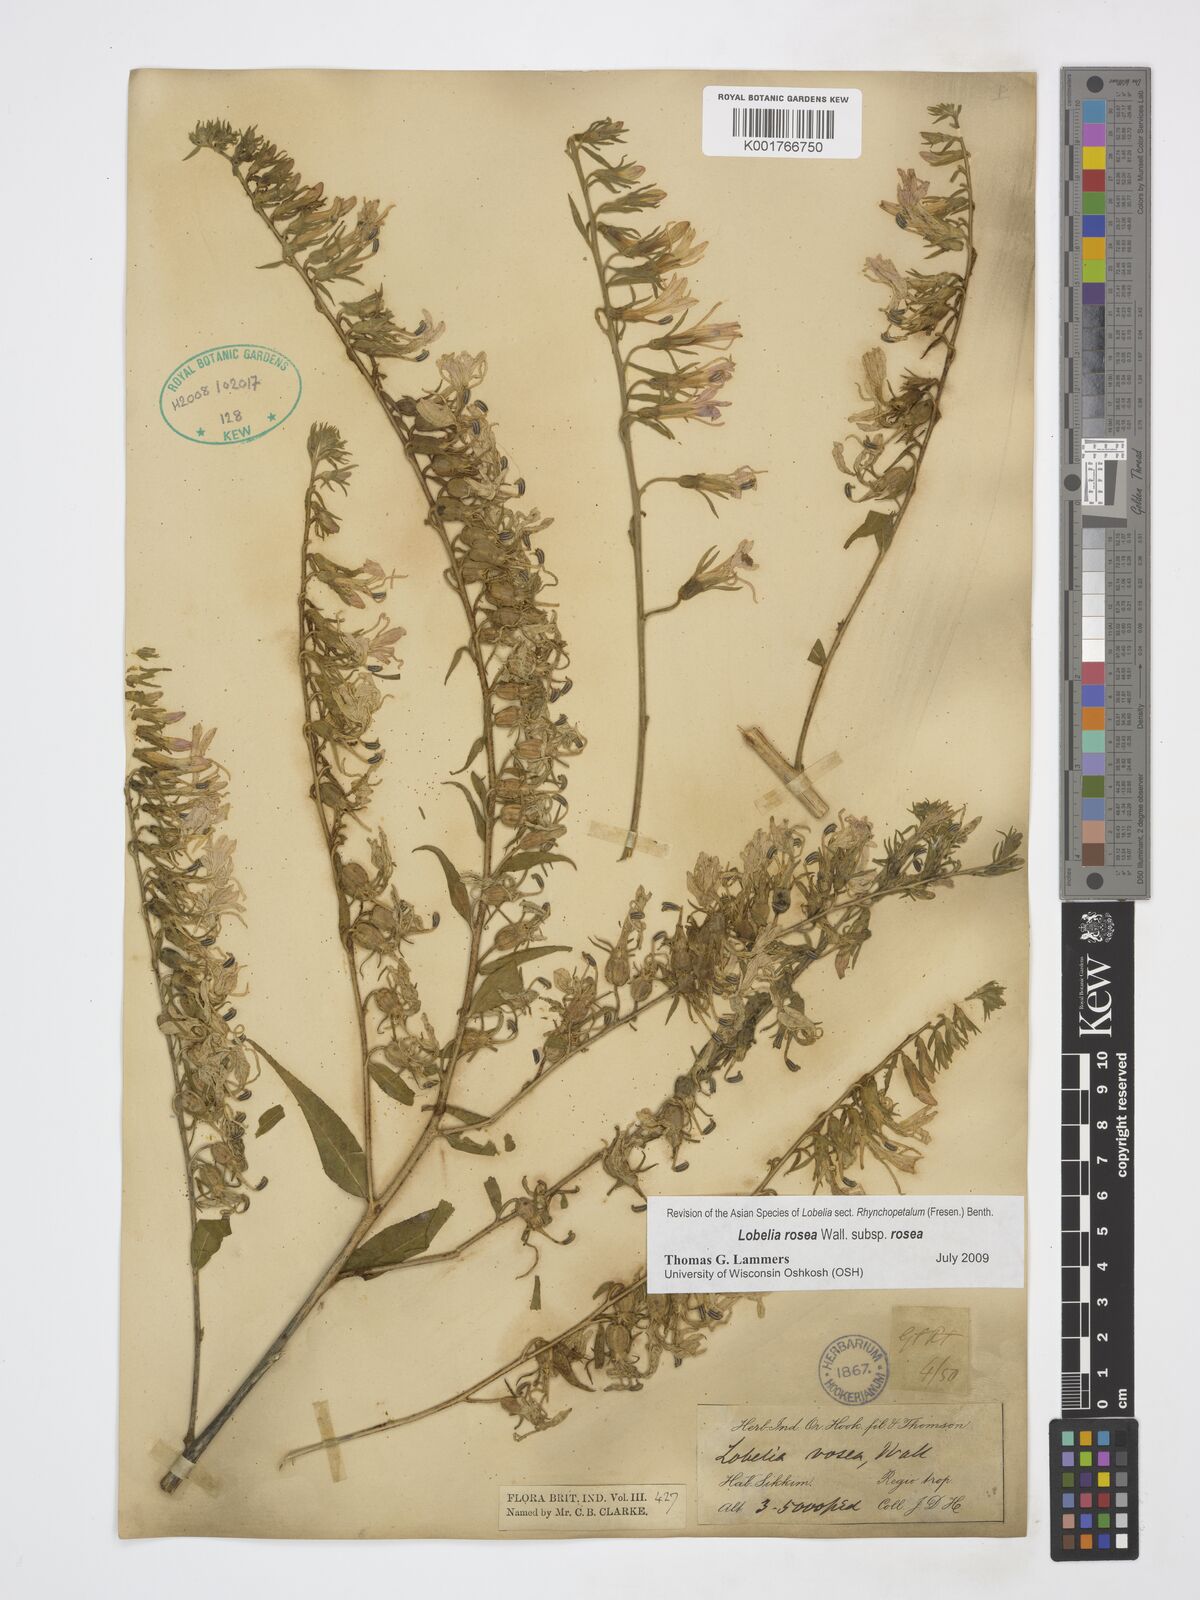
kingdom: Plantae
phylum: Tracheophyta
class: Magnoliopsida
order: Asterales
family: Campanulaceae
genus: Lobelia
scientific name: Lobelia rosea
